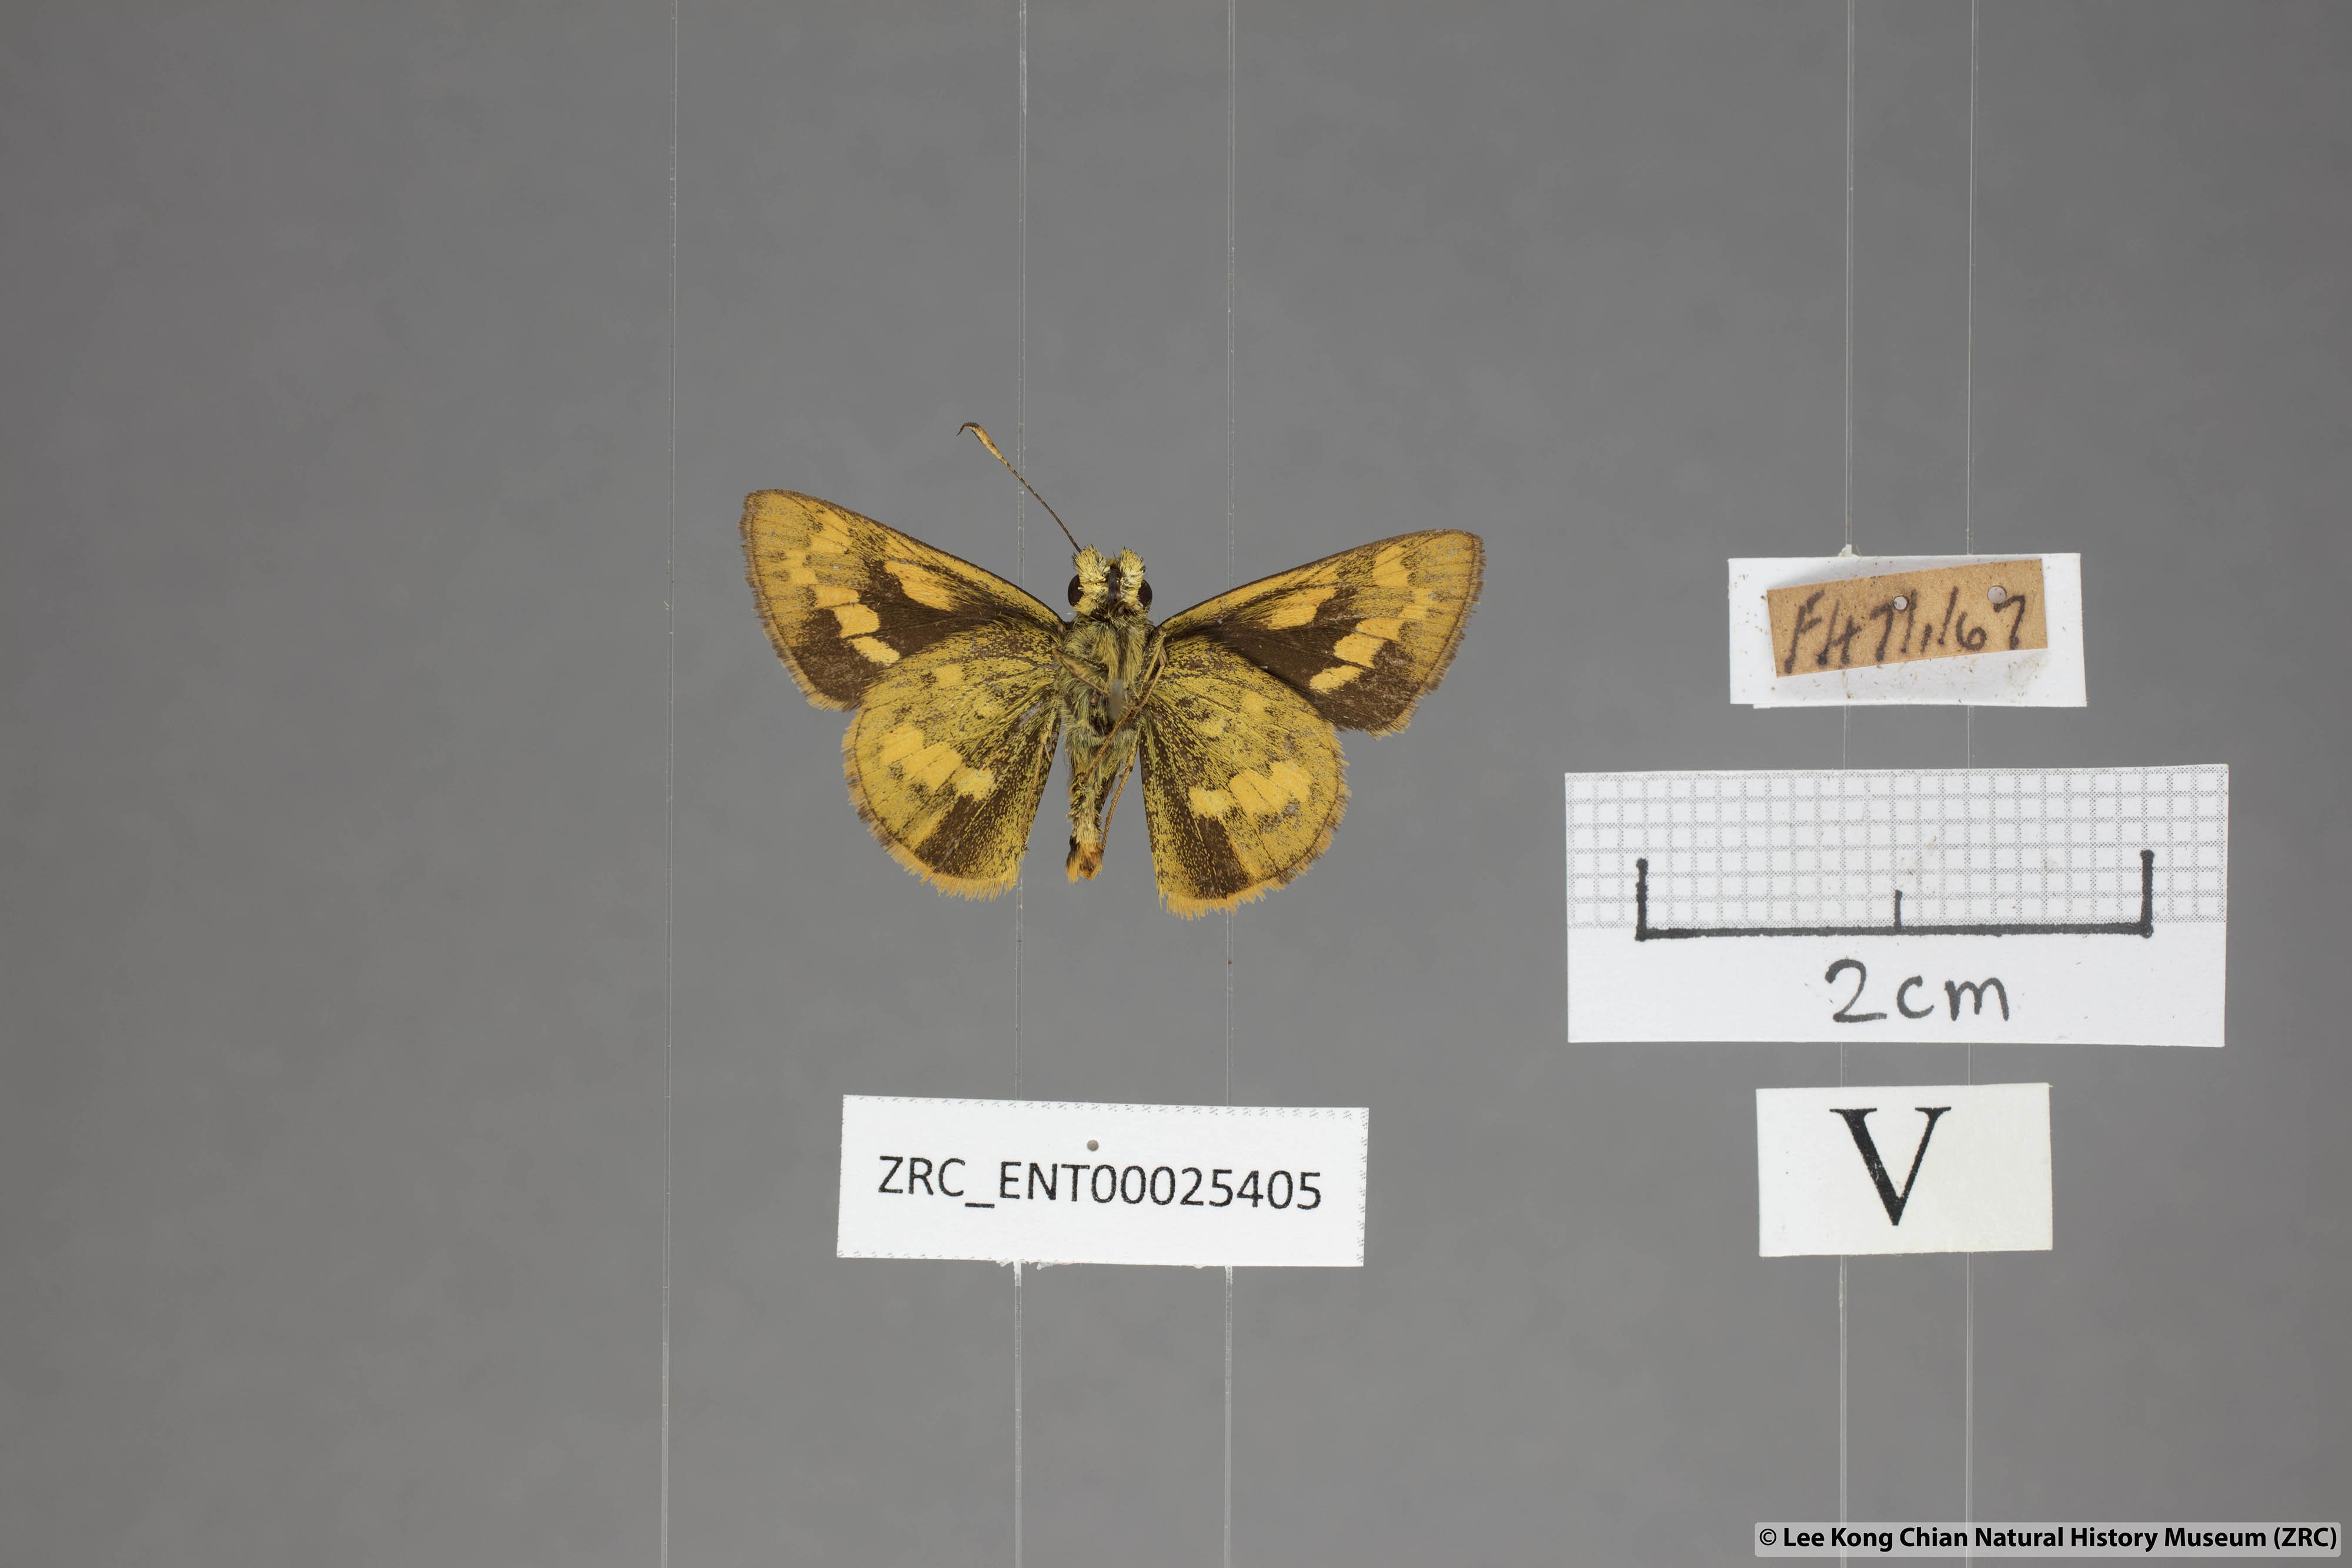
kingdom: Animalia
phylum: Arthropoda
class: Insecta
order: Lepidoptera
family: Hesperiidae
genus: Potanthus
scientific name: Potanthus lydia
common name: Lydia dart
